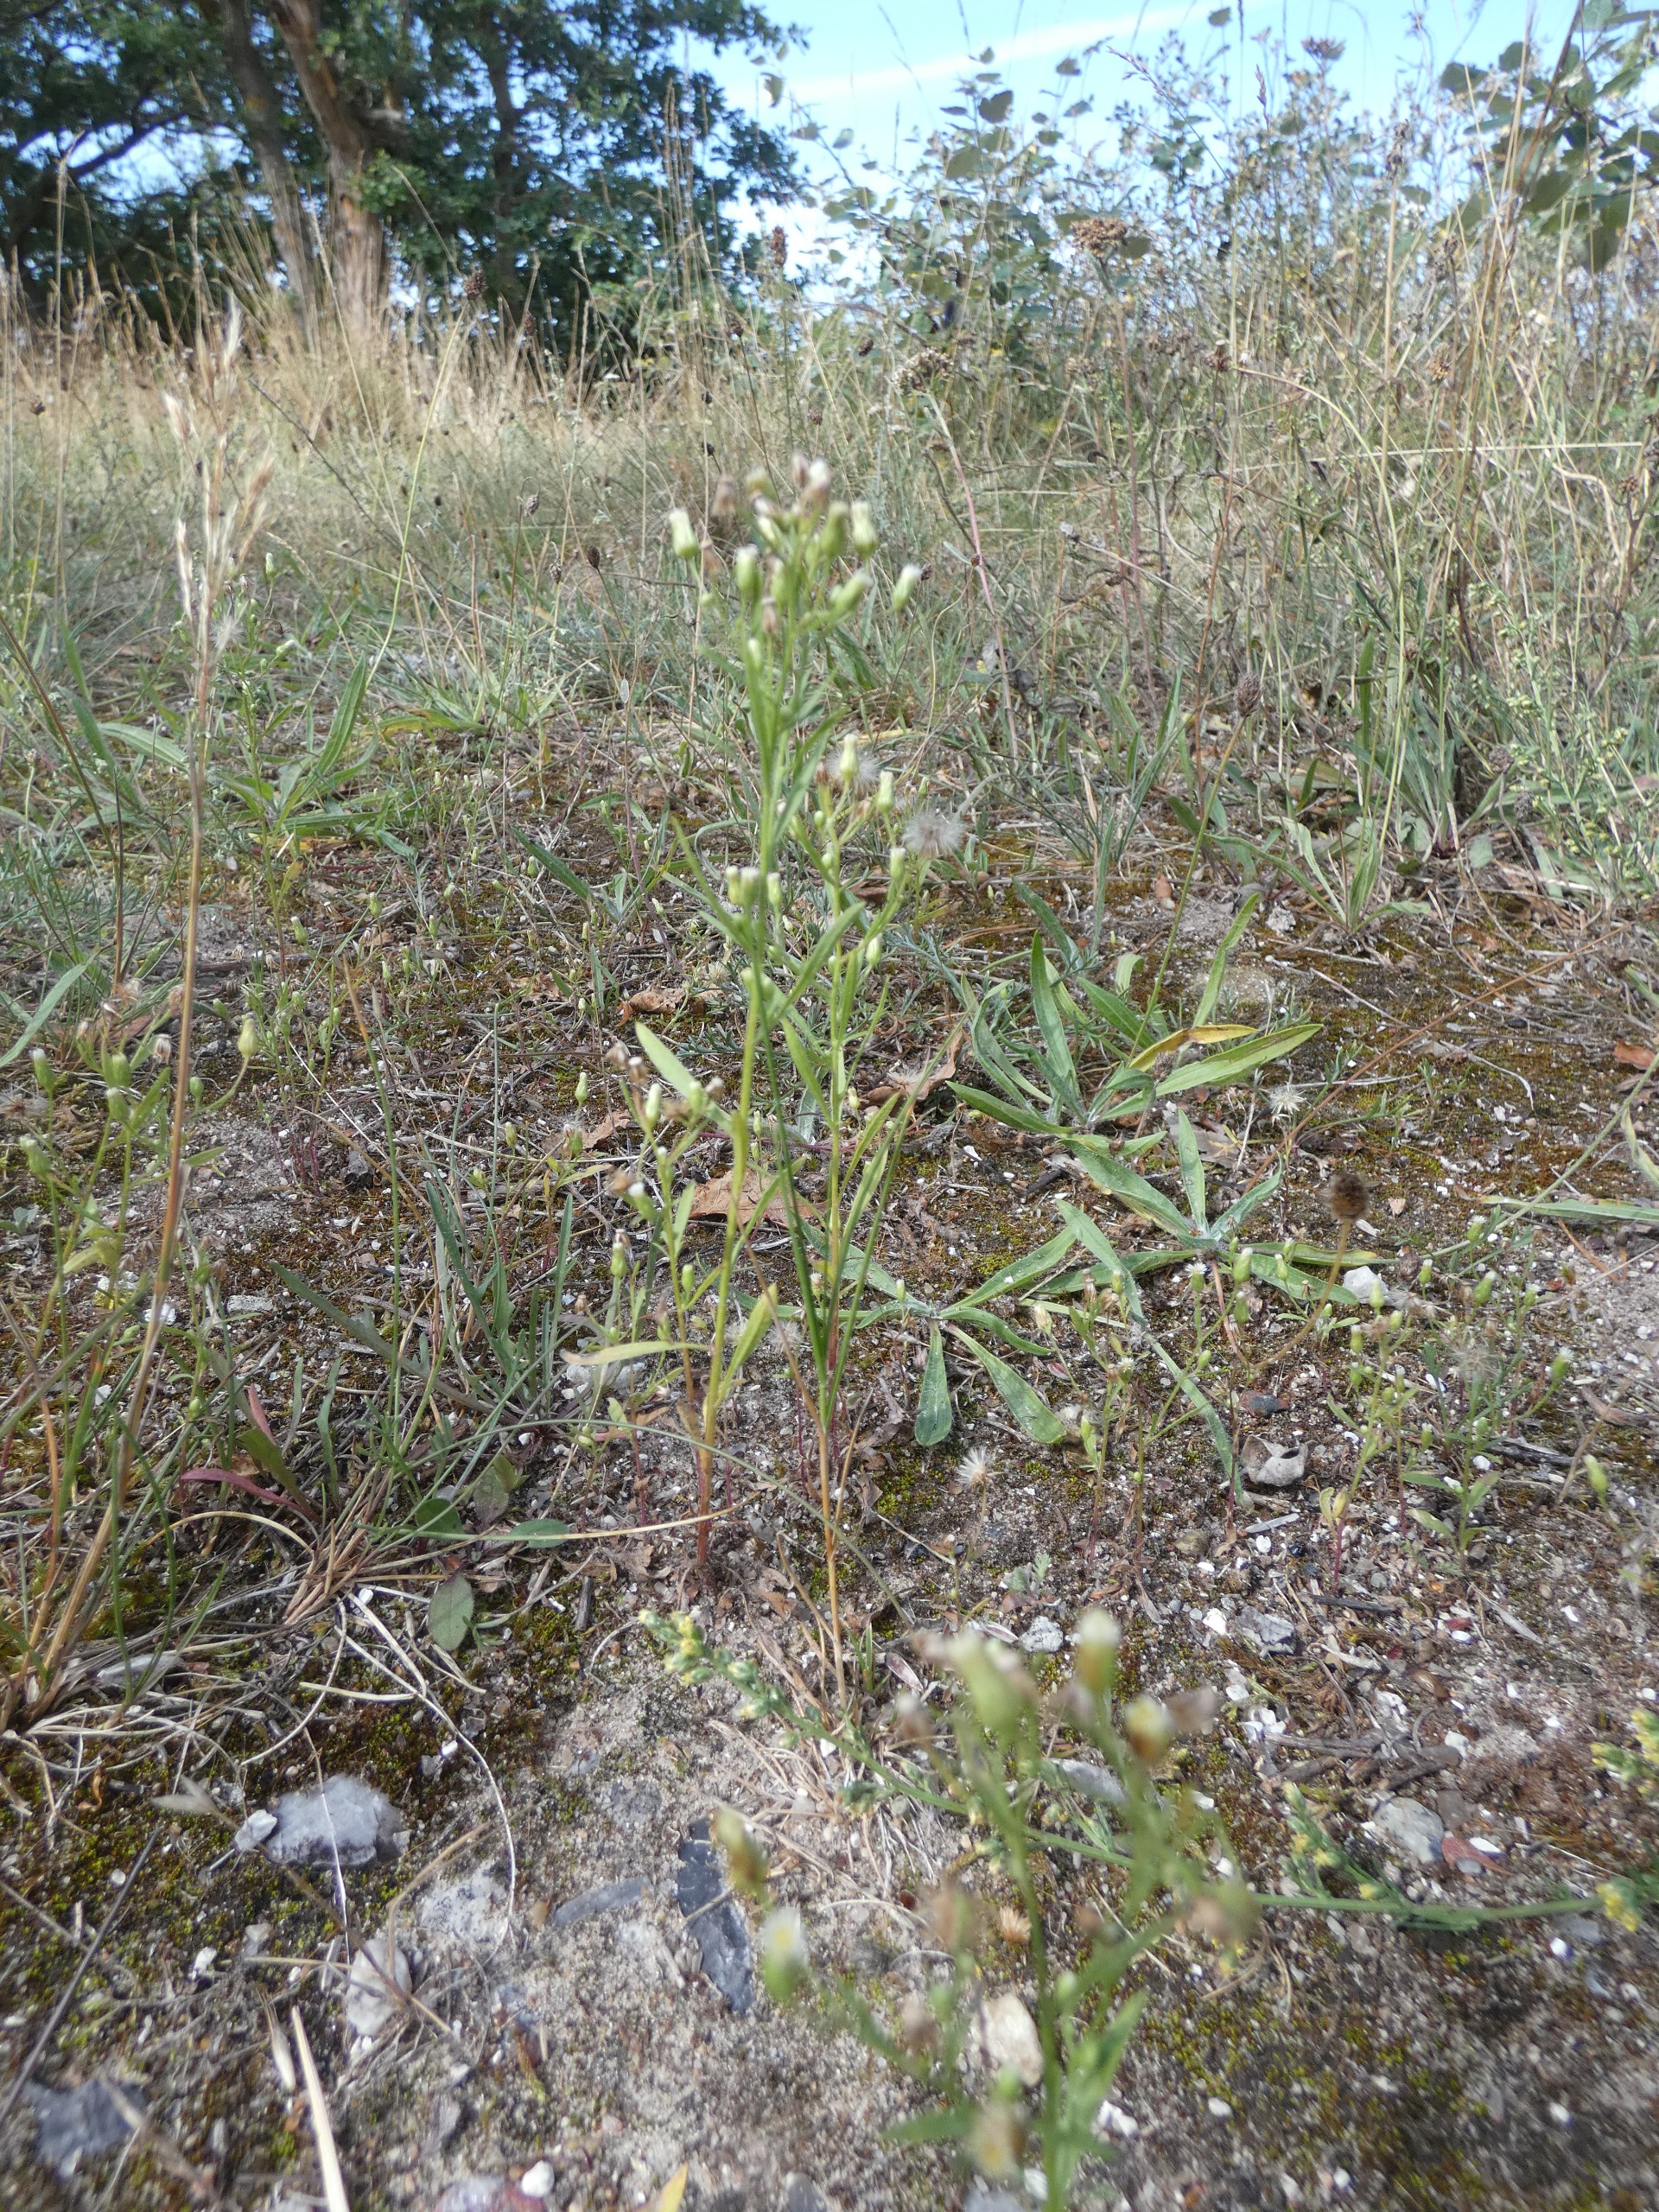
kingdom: Plantae
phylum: Tracheophyta
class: Magnoliopsida
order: Asterales
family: Asteraceae
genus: Erigeron
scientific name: Erigeron canadensis
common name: Kanadisk bakkestjerne
